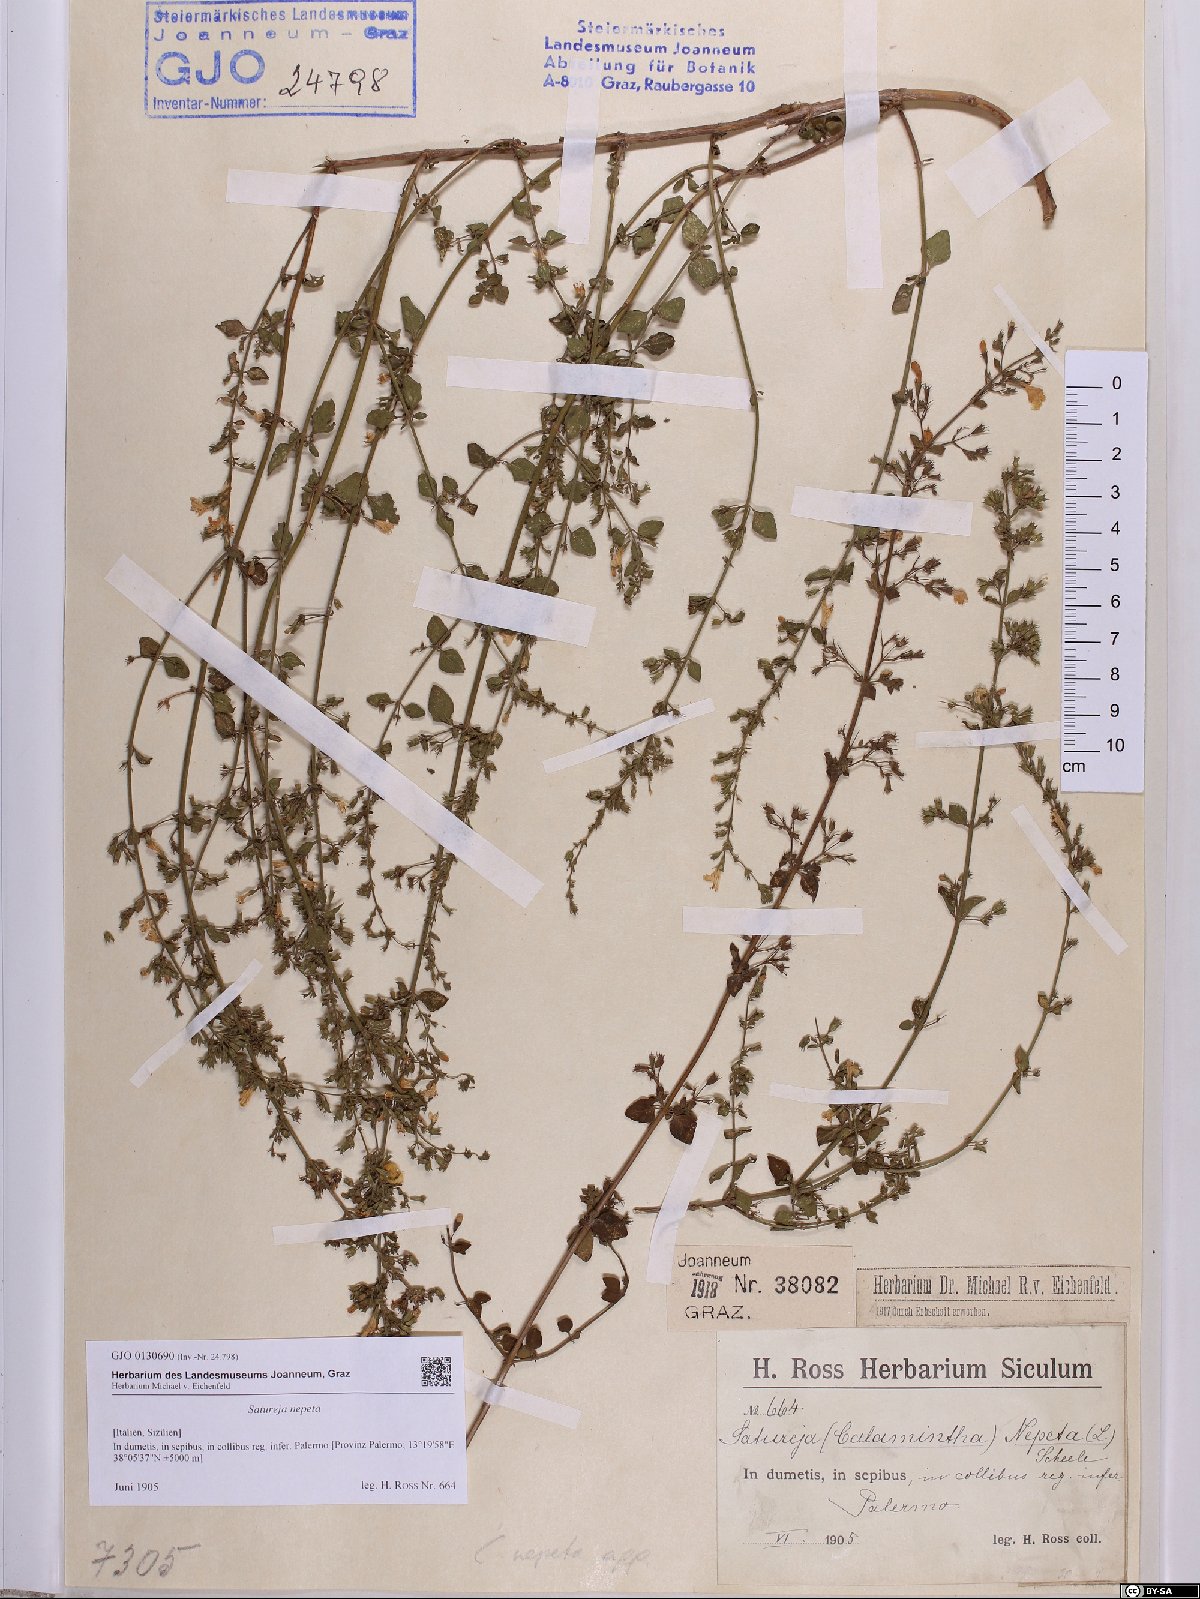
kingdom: Plantae
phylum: Tracheophyta
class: Magnoliopsida
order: Lamiales
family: Lamiaceae
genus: Clinopodium
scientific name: Clinopodium nepeta
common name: Lesser calamint
